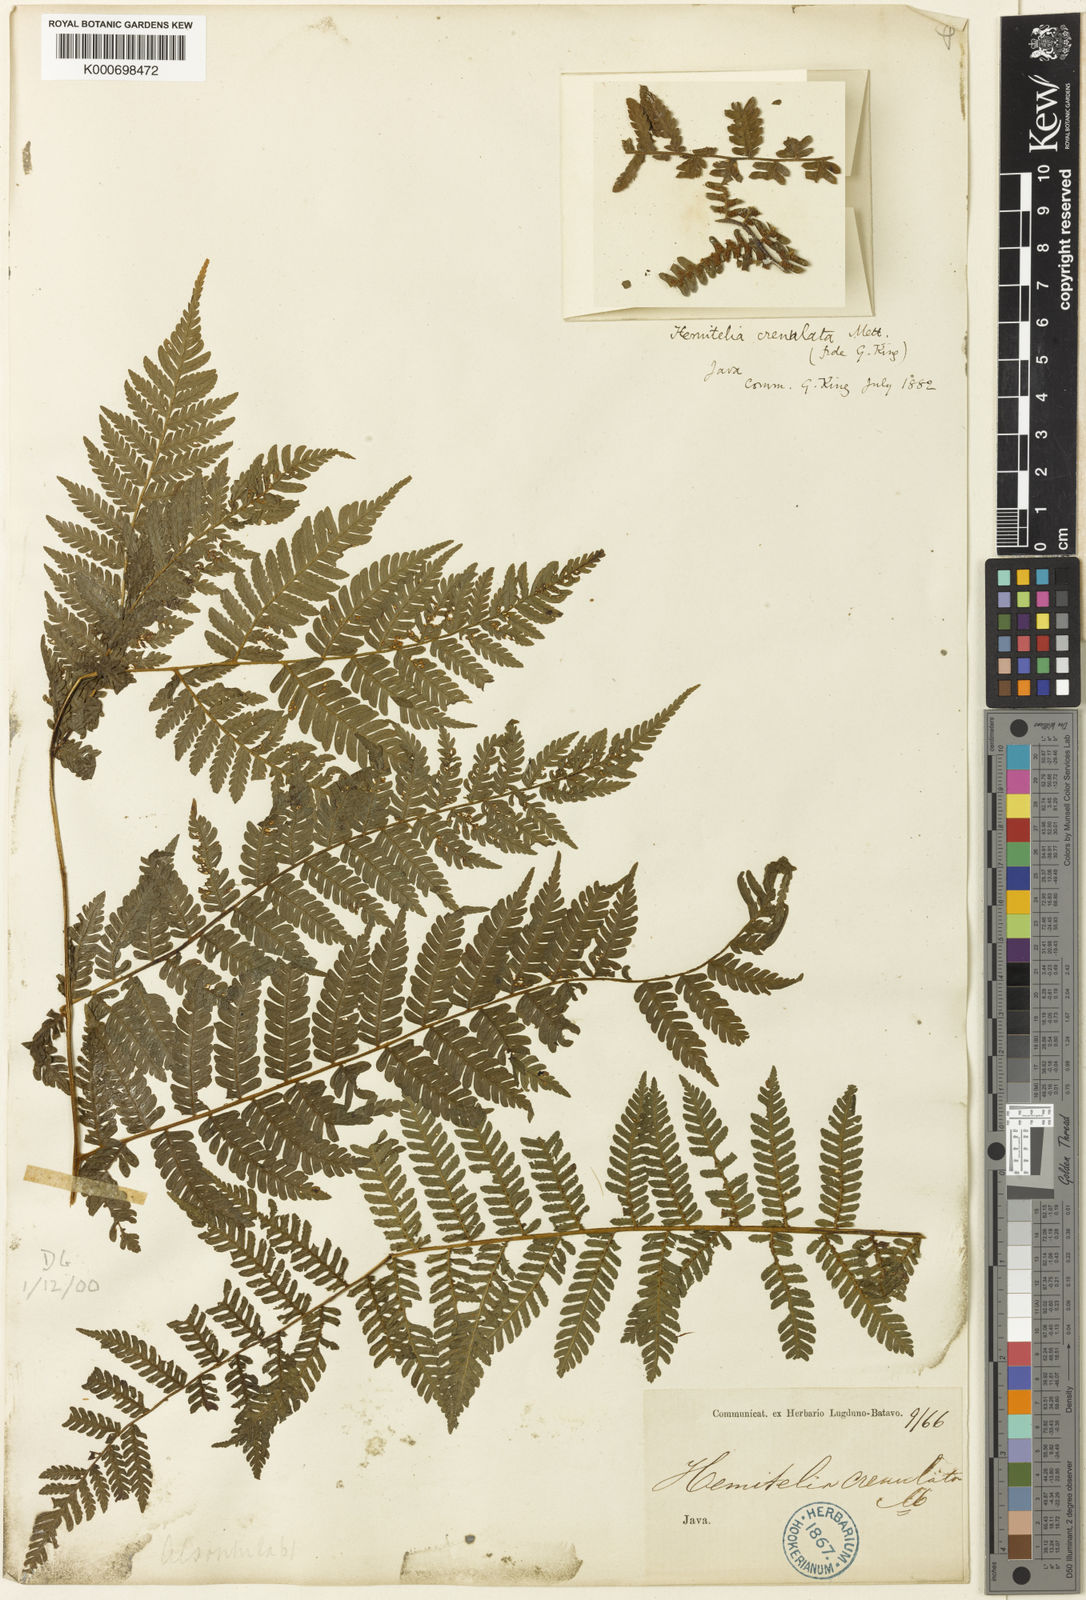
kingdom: Plantae
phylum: Tracheophyta
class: Polypodiopsida
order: Cyatheales
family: Cyatheaceae
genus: Alsophila
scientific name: Alsophila crenulata
